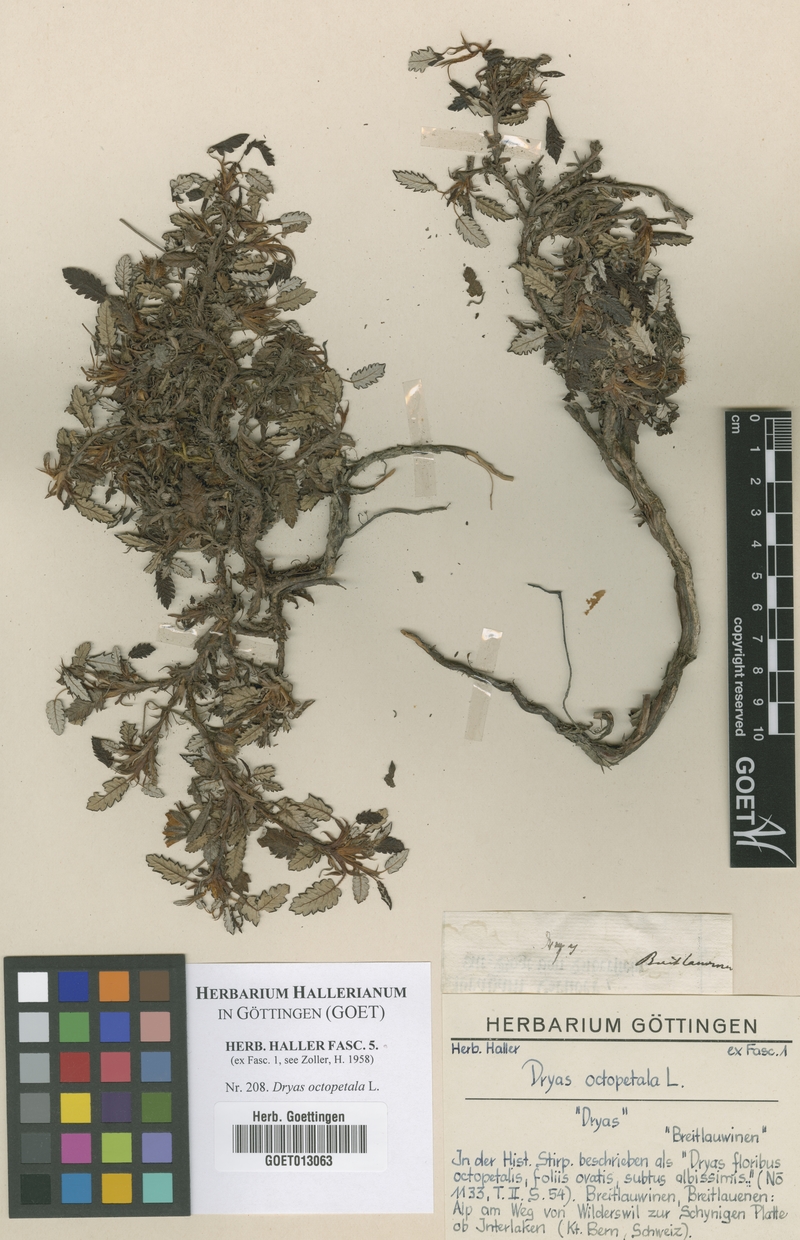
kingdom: Plantae
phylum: Tracheophyta
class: Magnoliopsida
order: Rosales
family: Rosaceae
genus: Dryas
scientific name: Dryas octopetala
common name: Eight-petal mountain-avens
